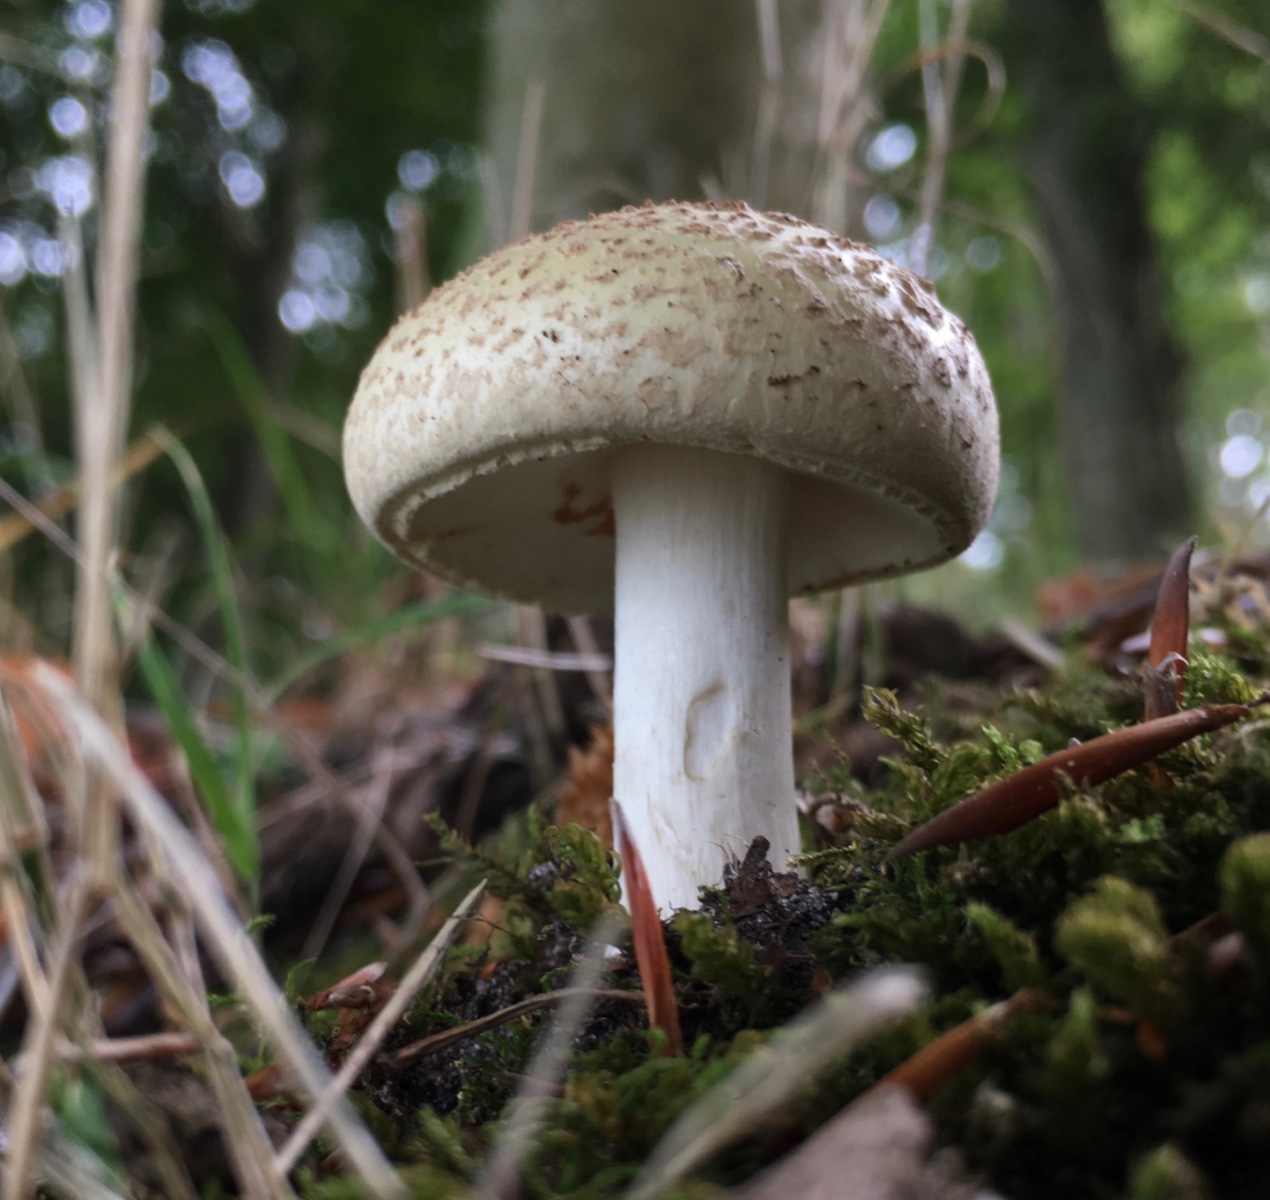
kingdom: Fungi
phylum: Basidiomycota
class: Agaricomycetes
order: Agaricales
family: Amanitaceae
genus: Amanita
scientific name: Amanita citrina
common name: kugleknoldet fluesvamp
